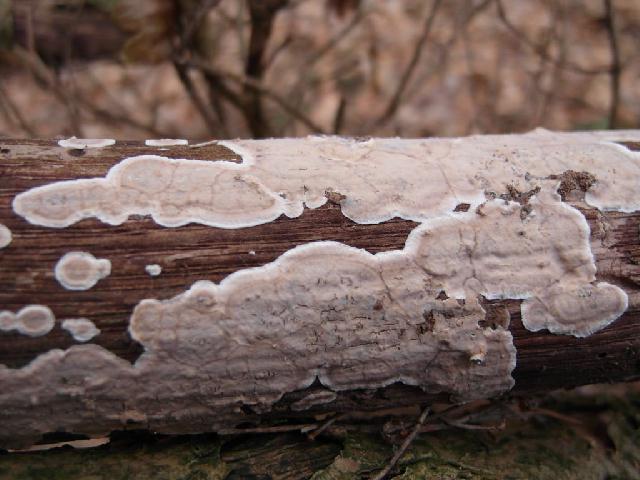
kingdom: Fungi
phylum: Basidiomycota
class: Agaricomycetes
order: Russulales
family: Stereaceae
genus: Stereum
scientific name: Stereum rugosum
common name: rynket lædersvamp
